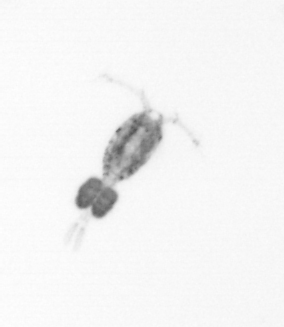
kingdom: Animalia
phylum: Arthropoda
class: Copepoda
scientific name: Copepoda
